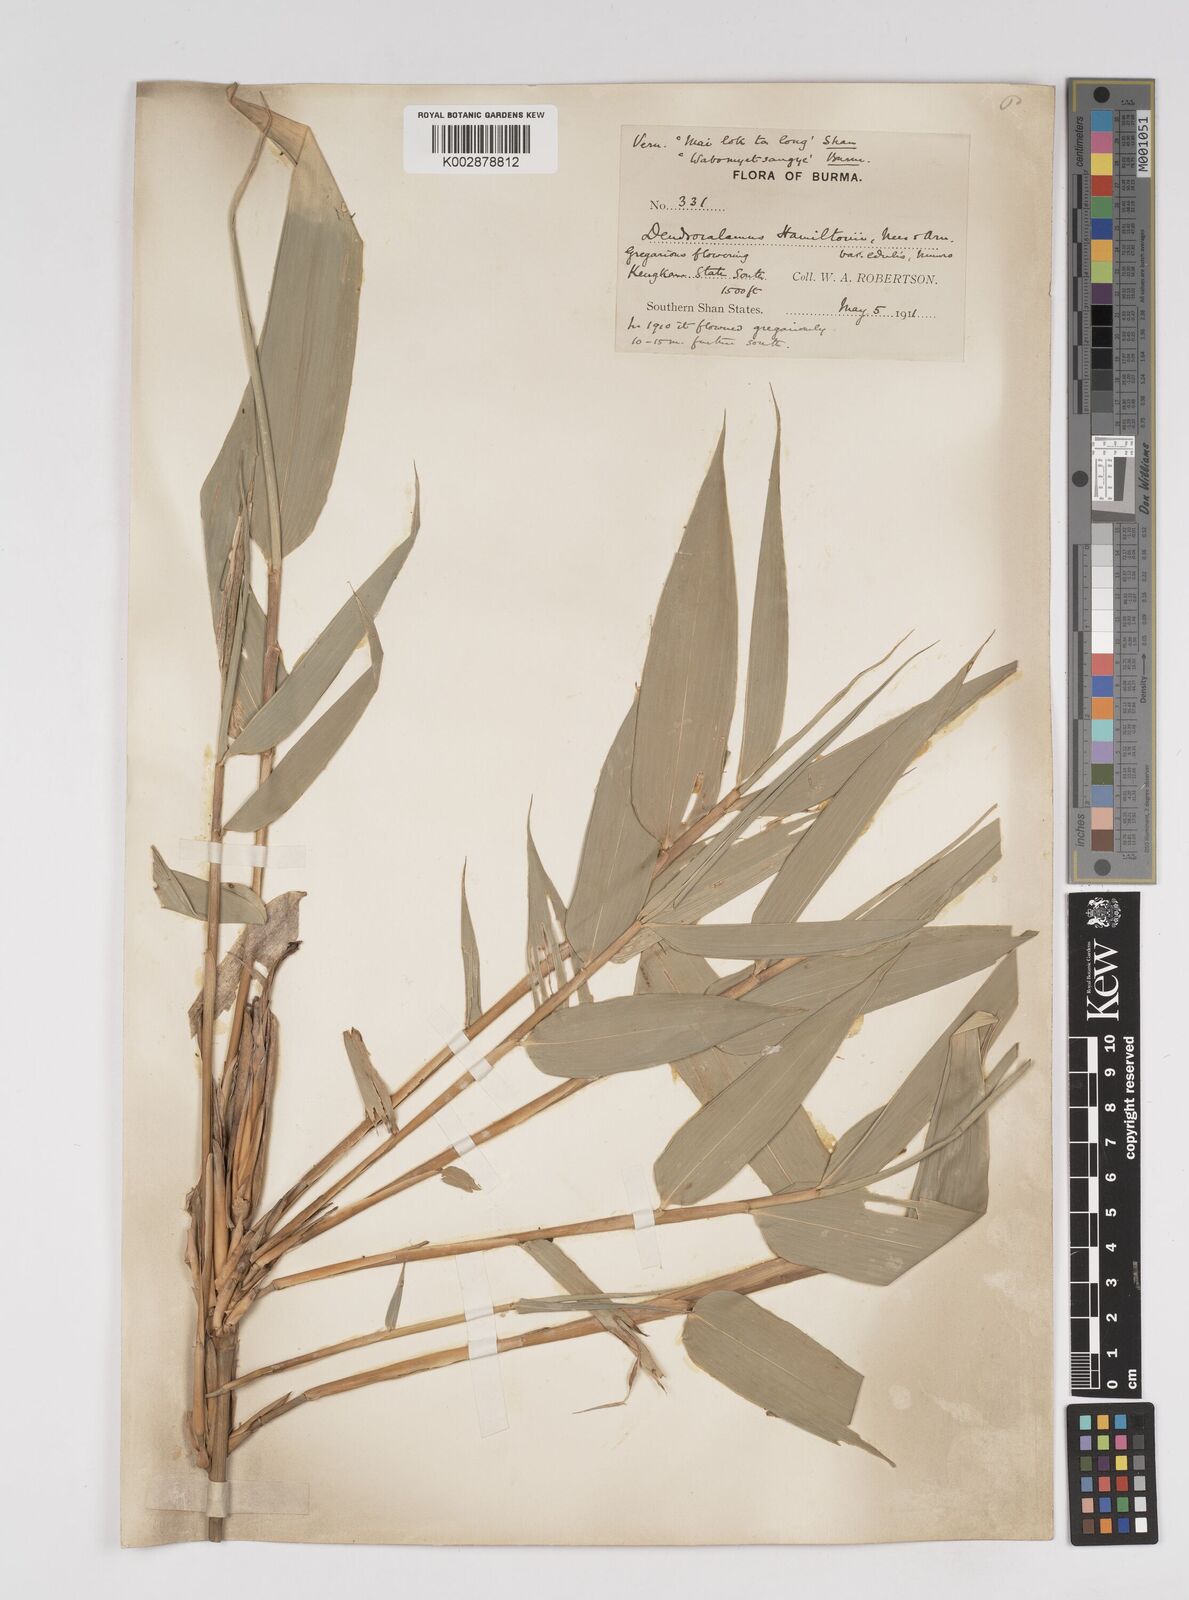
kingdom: Plantae
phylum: Tracheophyta
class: Liliopsida
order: Poales
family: Poaceae
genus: Dendrocalamus
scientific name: Dendrocalamus hamiltonii
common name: Tama bamboo
